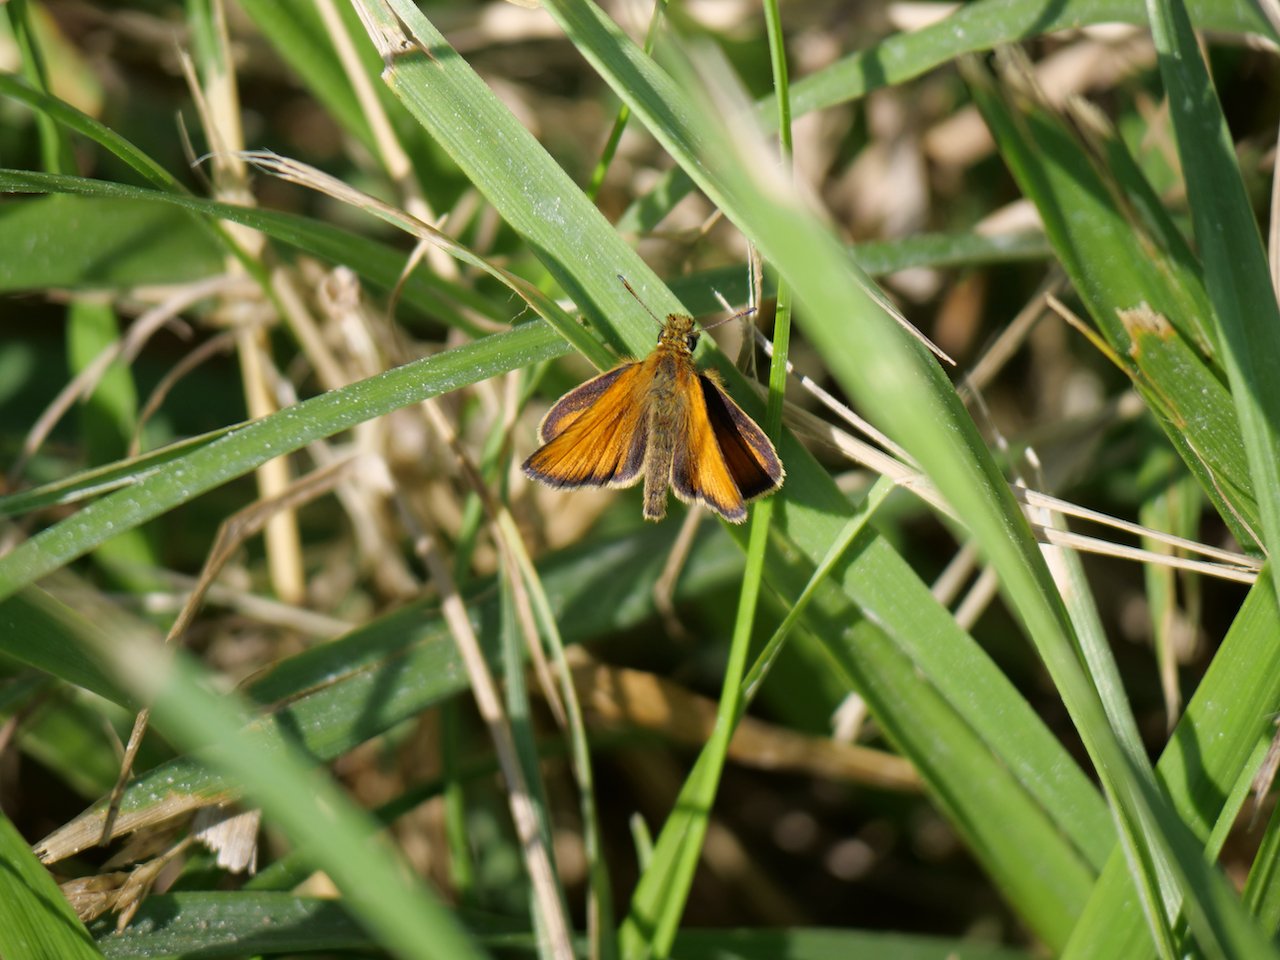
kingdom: Animalia
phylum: Arthropoda
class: Insecta
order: Lepidoptera
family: Hesperiidae
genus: Thymelicus
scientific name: Thymelicus lineola
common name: European Skipper
